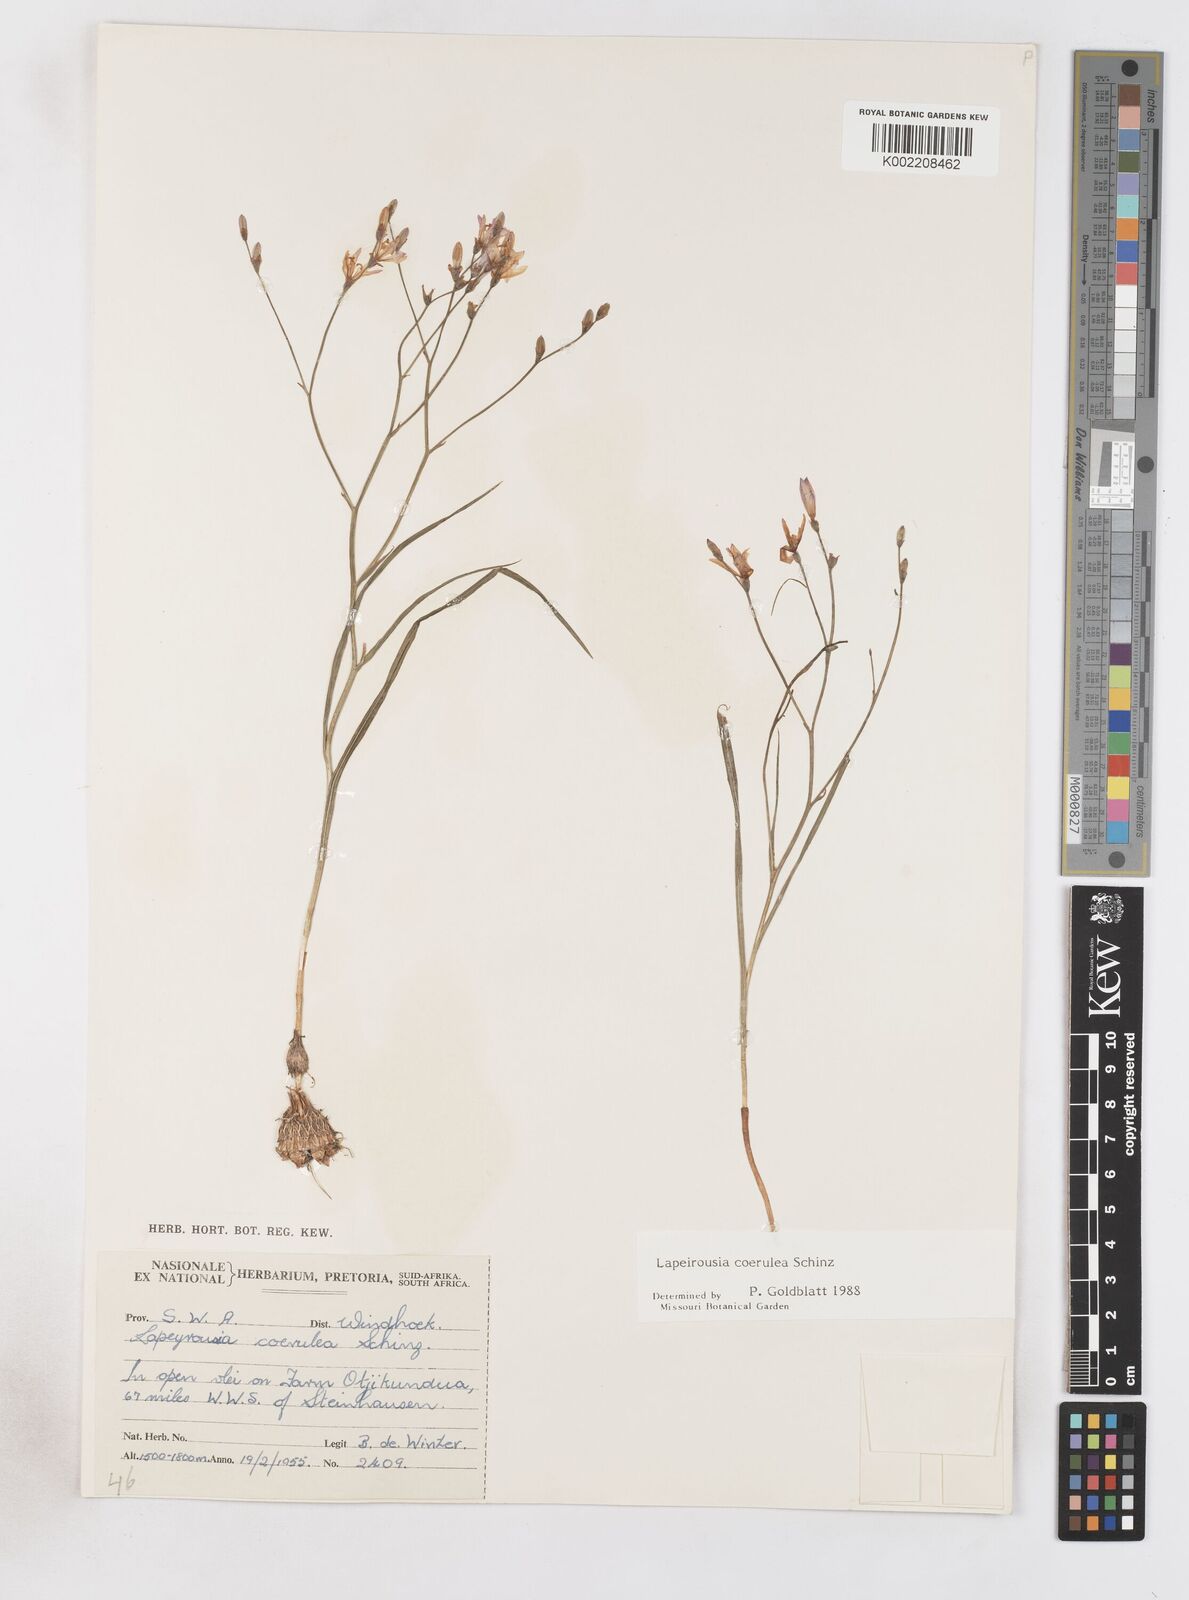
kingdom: Plantae
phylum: Tracheophyta
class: Liliopsida
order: Asparagales
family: Iridaceae
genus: Afrosolen
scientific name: Afrosolen coeruleus
